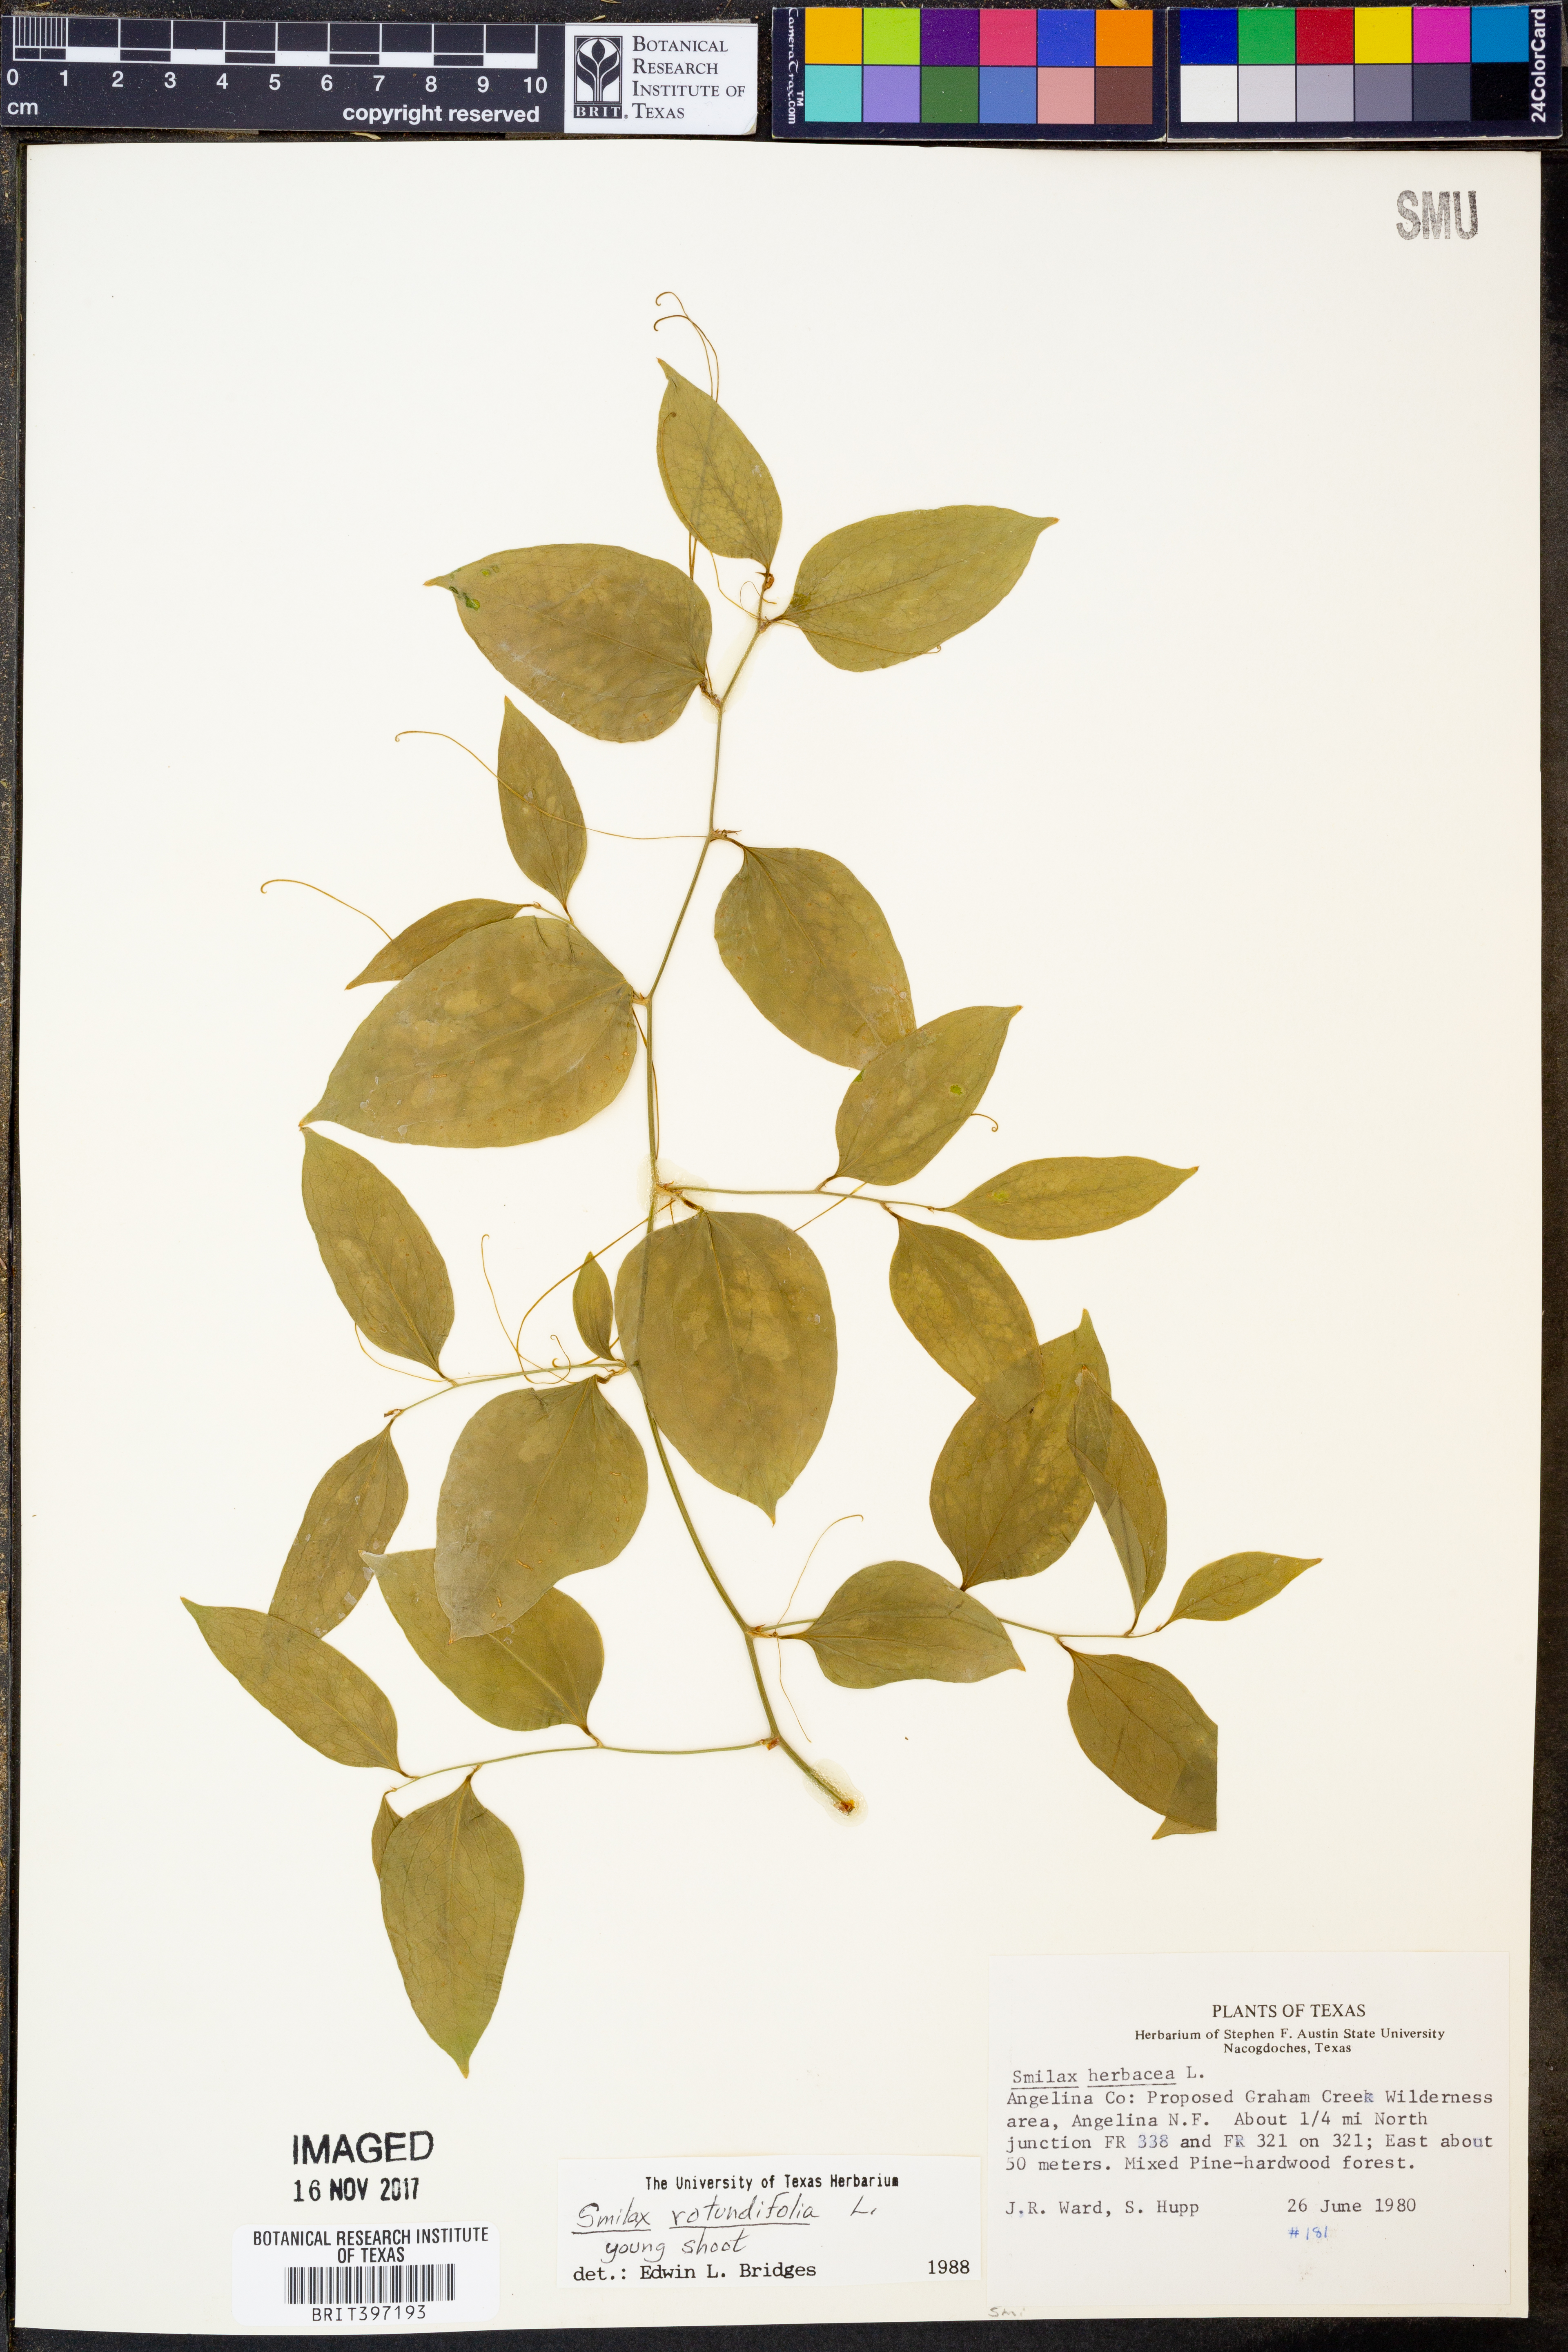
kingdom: Plantae
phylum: Tracheophyta
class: Liliopsida
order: Liliales
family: Smilacaceae
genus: Smilax
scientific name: Smilax rotundifolia
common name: Bullbriar
